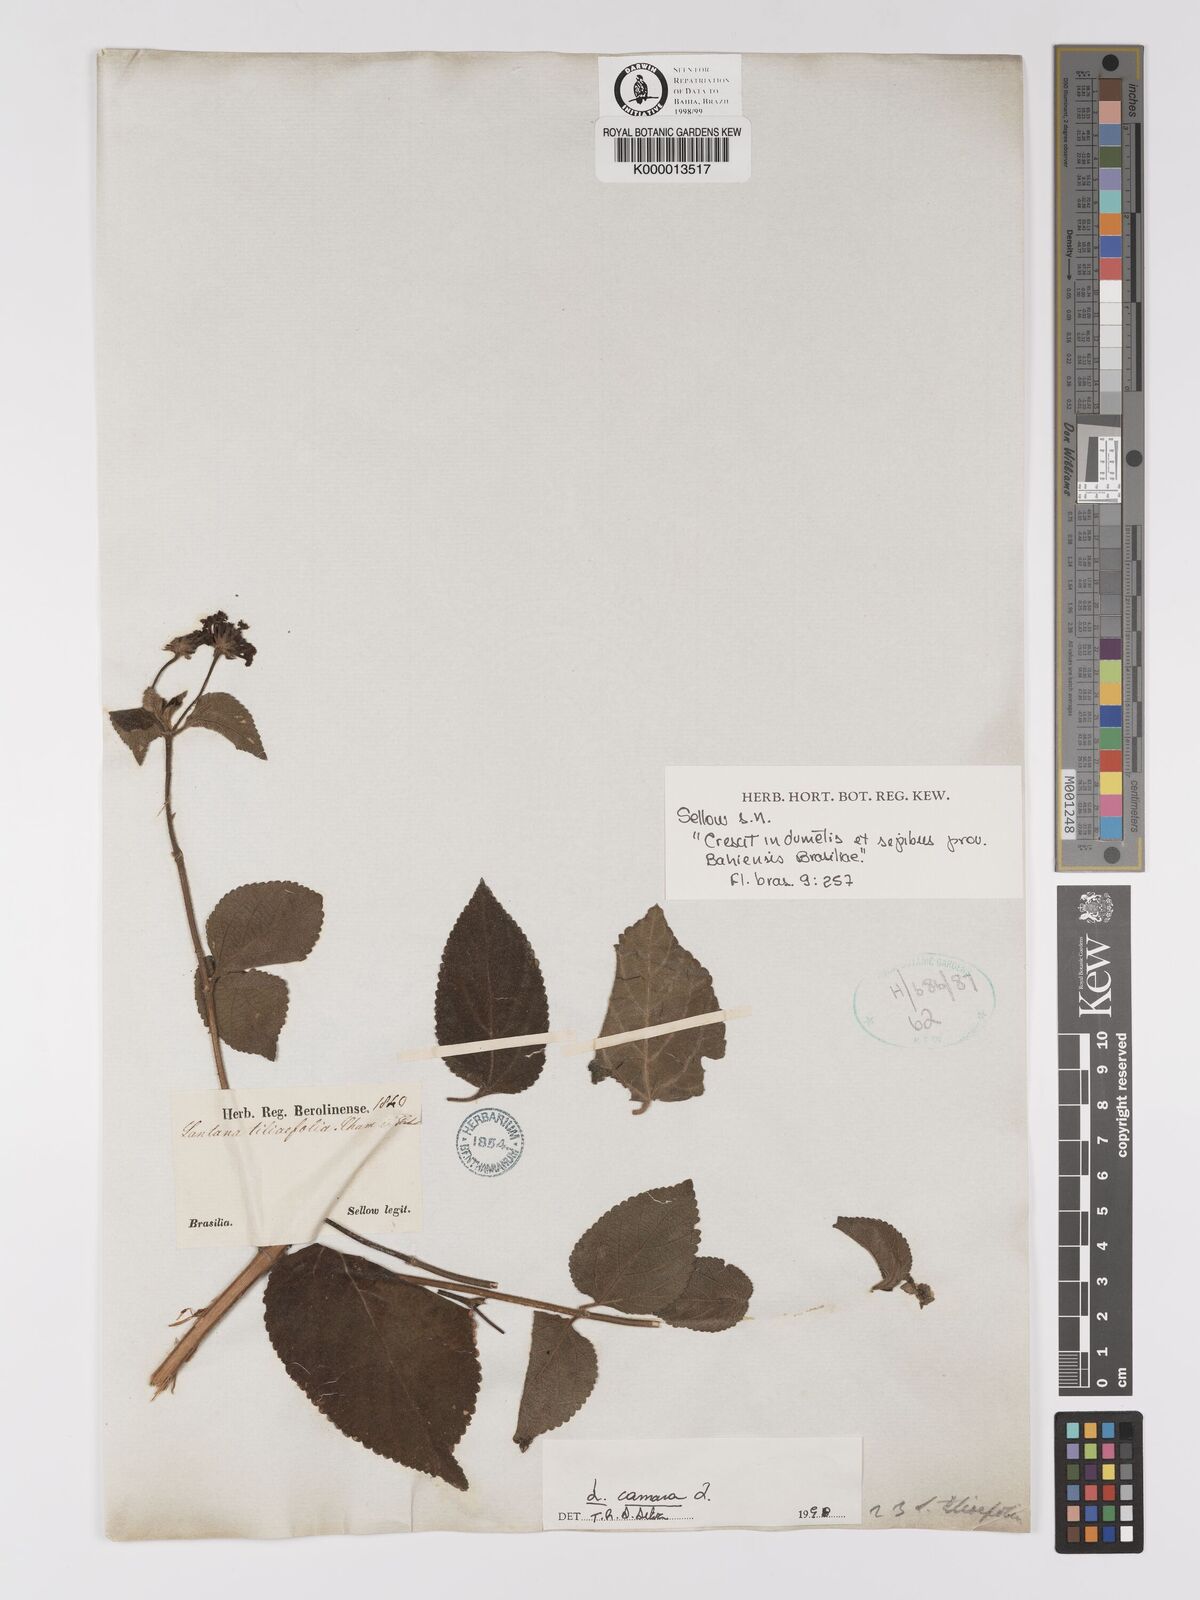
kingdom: Plantae
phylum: Tracheophyta
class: Magnoliopsida
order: Lamiales
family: Verbenaceae
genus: Lantana
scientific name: Lantana camara
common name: Lantana
